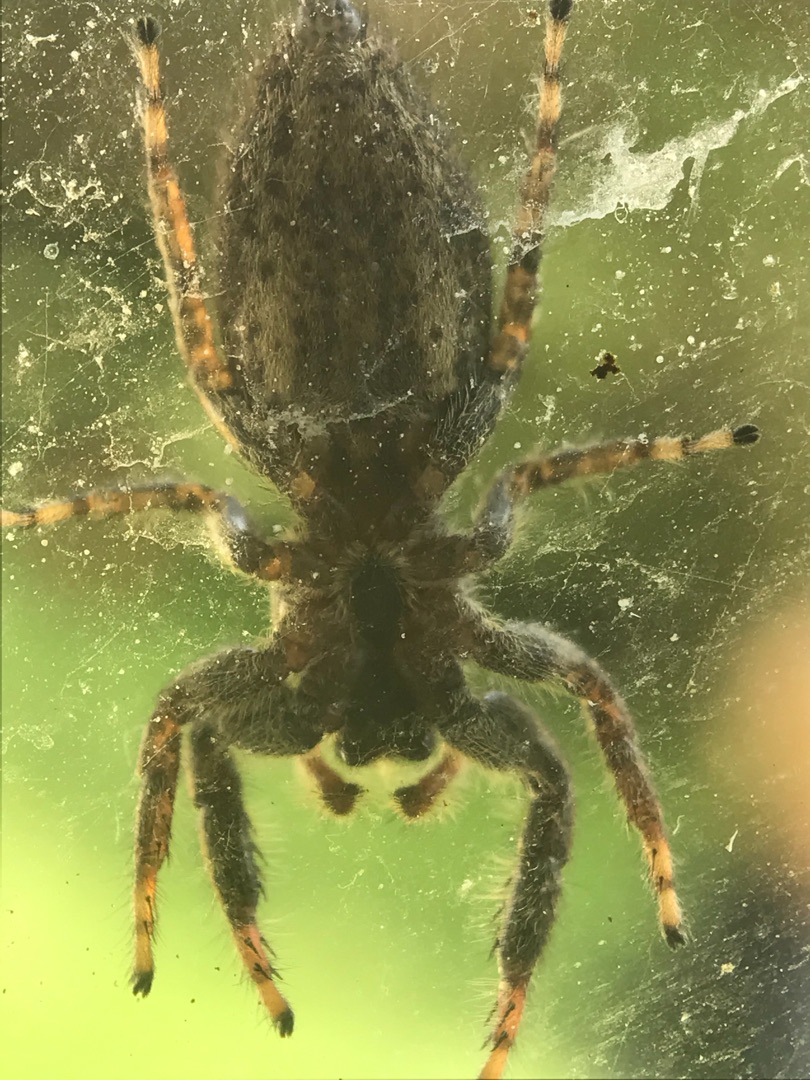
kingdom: Animalia
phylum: Arthropoda
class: Arachnida
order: Araneae
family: Salticidae
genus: Marpissa
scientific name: Marpissa muscosa
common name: Stor springedderkop
